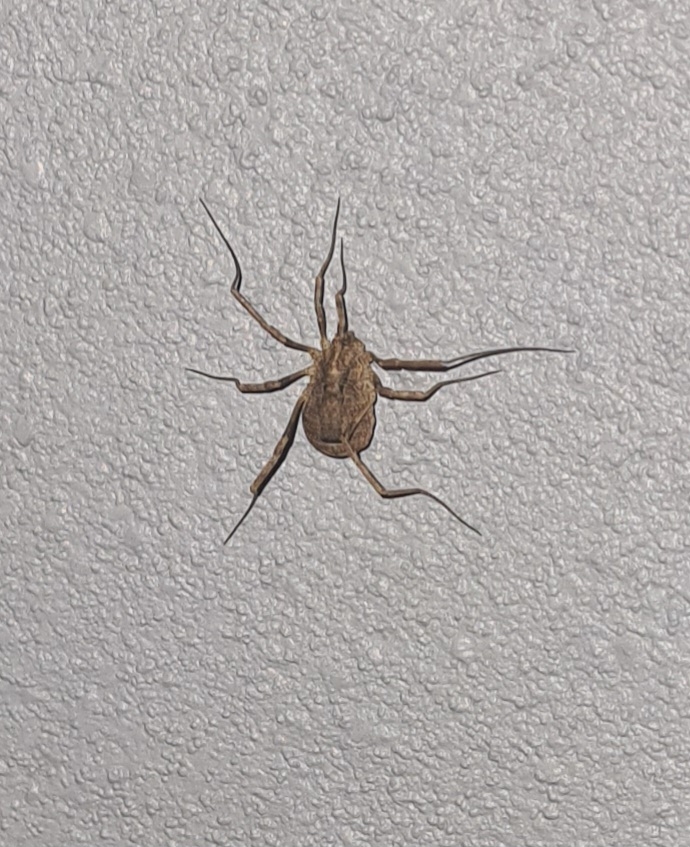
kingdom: Animalia
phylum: Arthropoda
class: Arachnida
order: Opiliones
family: Phalangiidae
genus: Odiellus
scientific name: Odiellus spinosus
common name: Kæmpemejer
